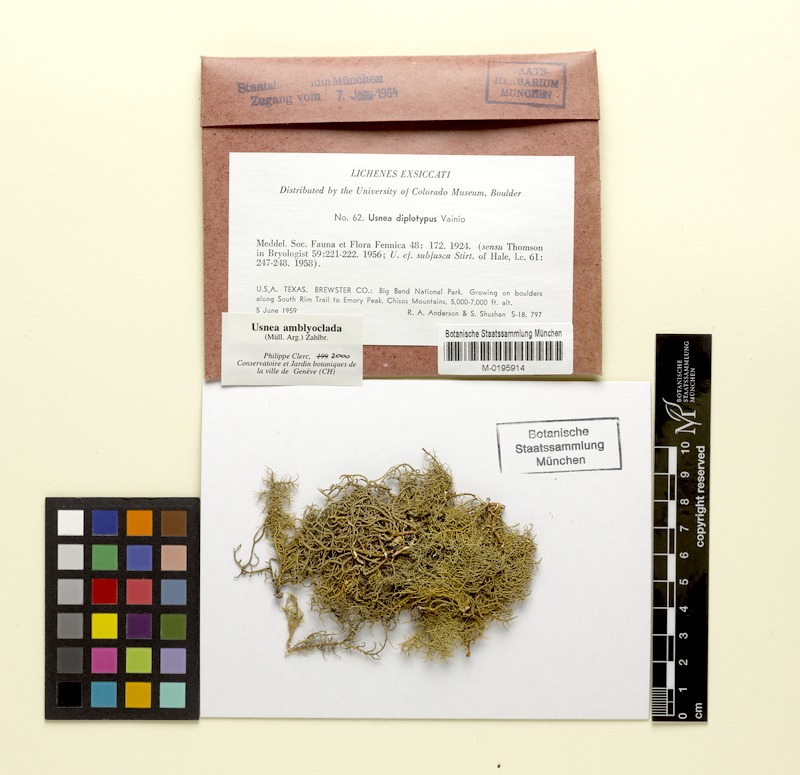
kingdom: Fungi
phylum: Ascomycota
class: Lecanoromycetes
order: Lecanorales
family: Parmeliaceae
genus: Usnea
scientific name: Usnea amblyoclada
